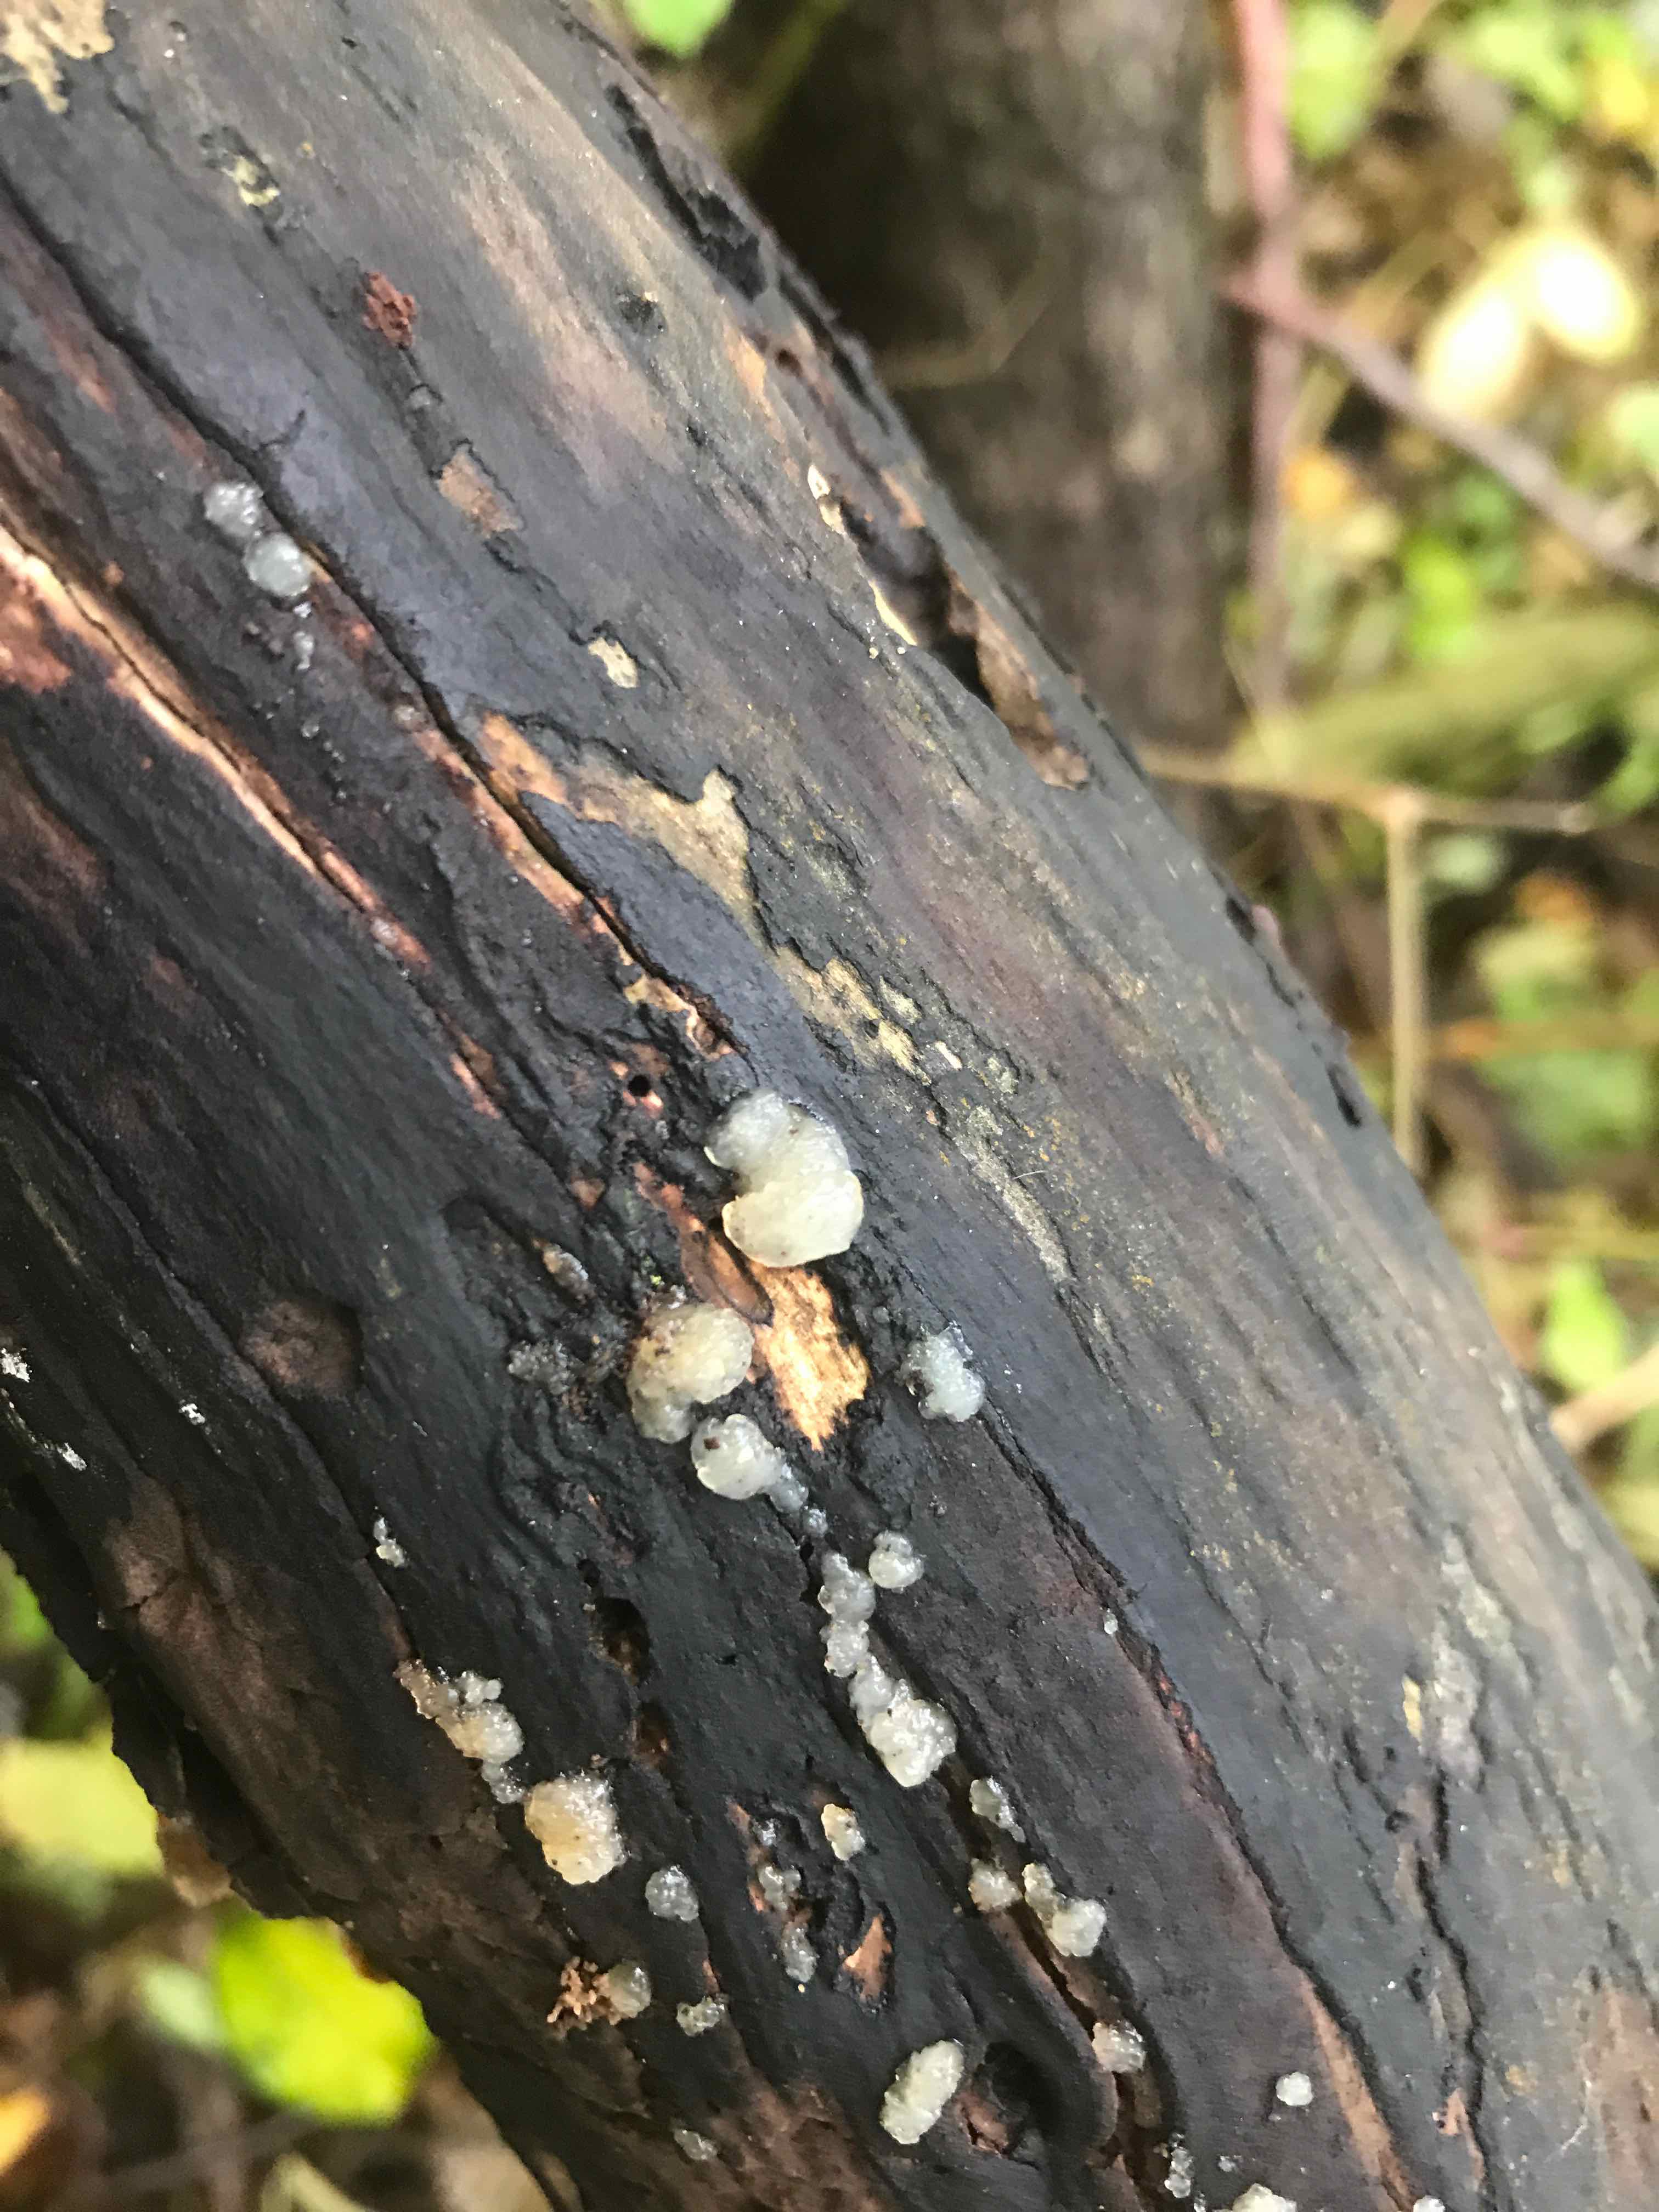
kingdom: Fungi
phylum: Basidiomycota
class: Agaricomycetes
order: Auriculariales
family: Hyaloriaceae
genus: Myxarium
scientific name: Myxarium nucleatum
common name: klar bævretop
